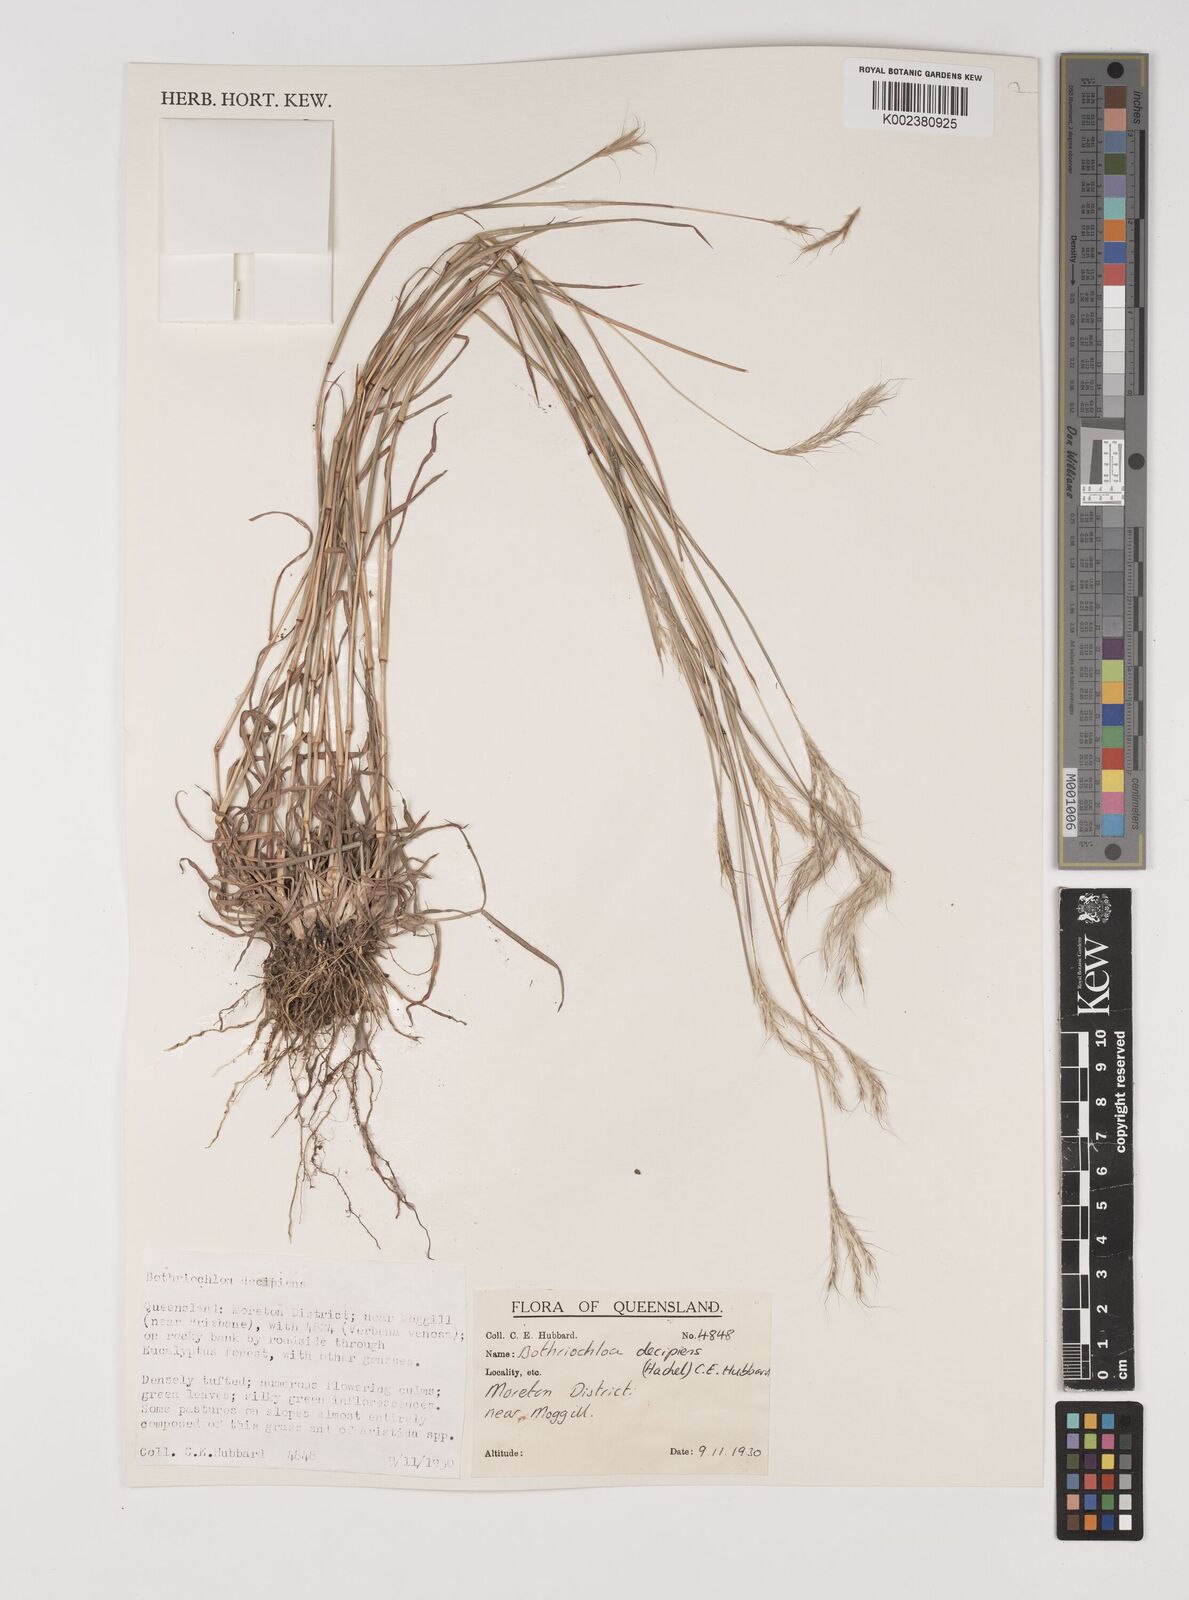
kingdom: Plantae
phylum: Tracheophyta
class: Liliopsida
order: Poales
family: Poaceae
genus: Bothriochloa
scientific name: Bothriochloa decipiens
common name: Pitted-bluegrass
